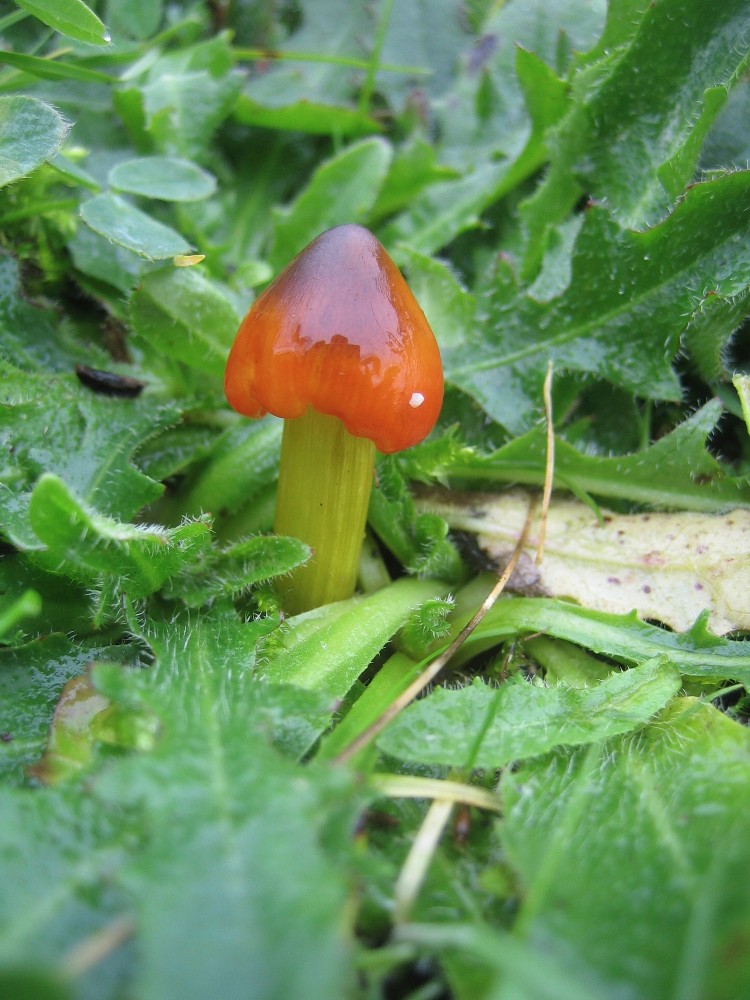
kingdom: Fungi
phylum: Basidiomycota
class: Agaricomycetes
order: Agaricales
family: Hygrophoraceae
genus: Hygrocybe
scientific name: Hygrocybe conica
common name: kegle-vokshat
